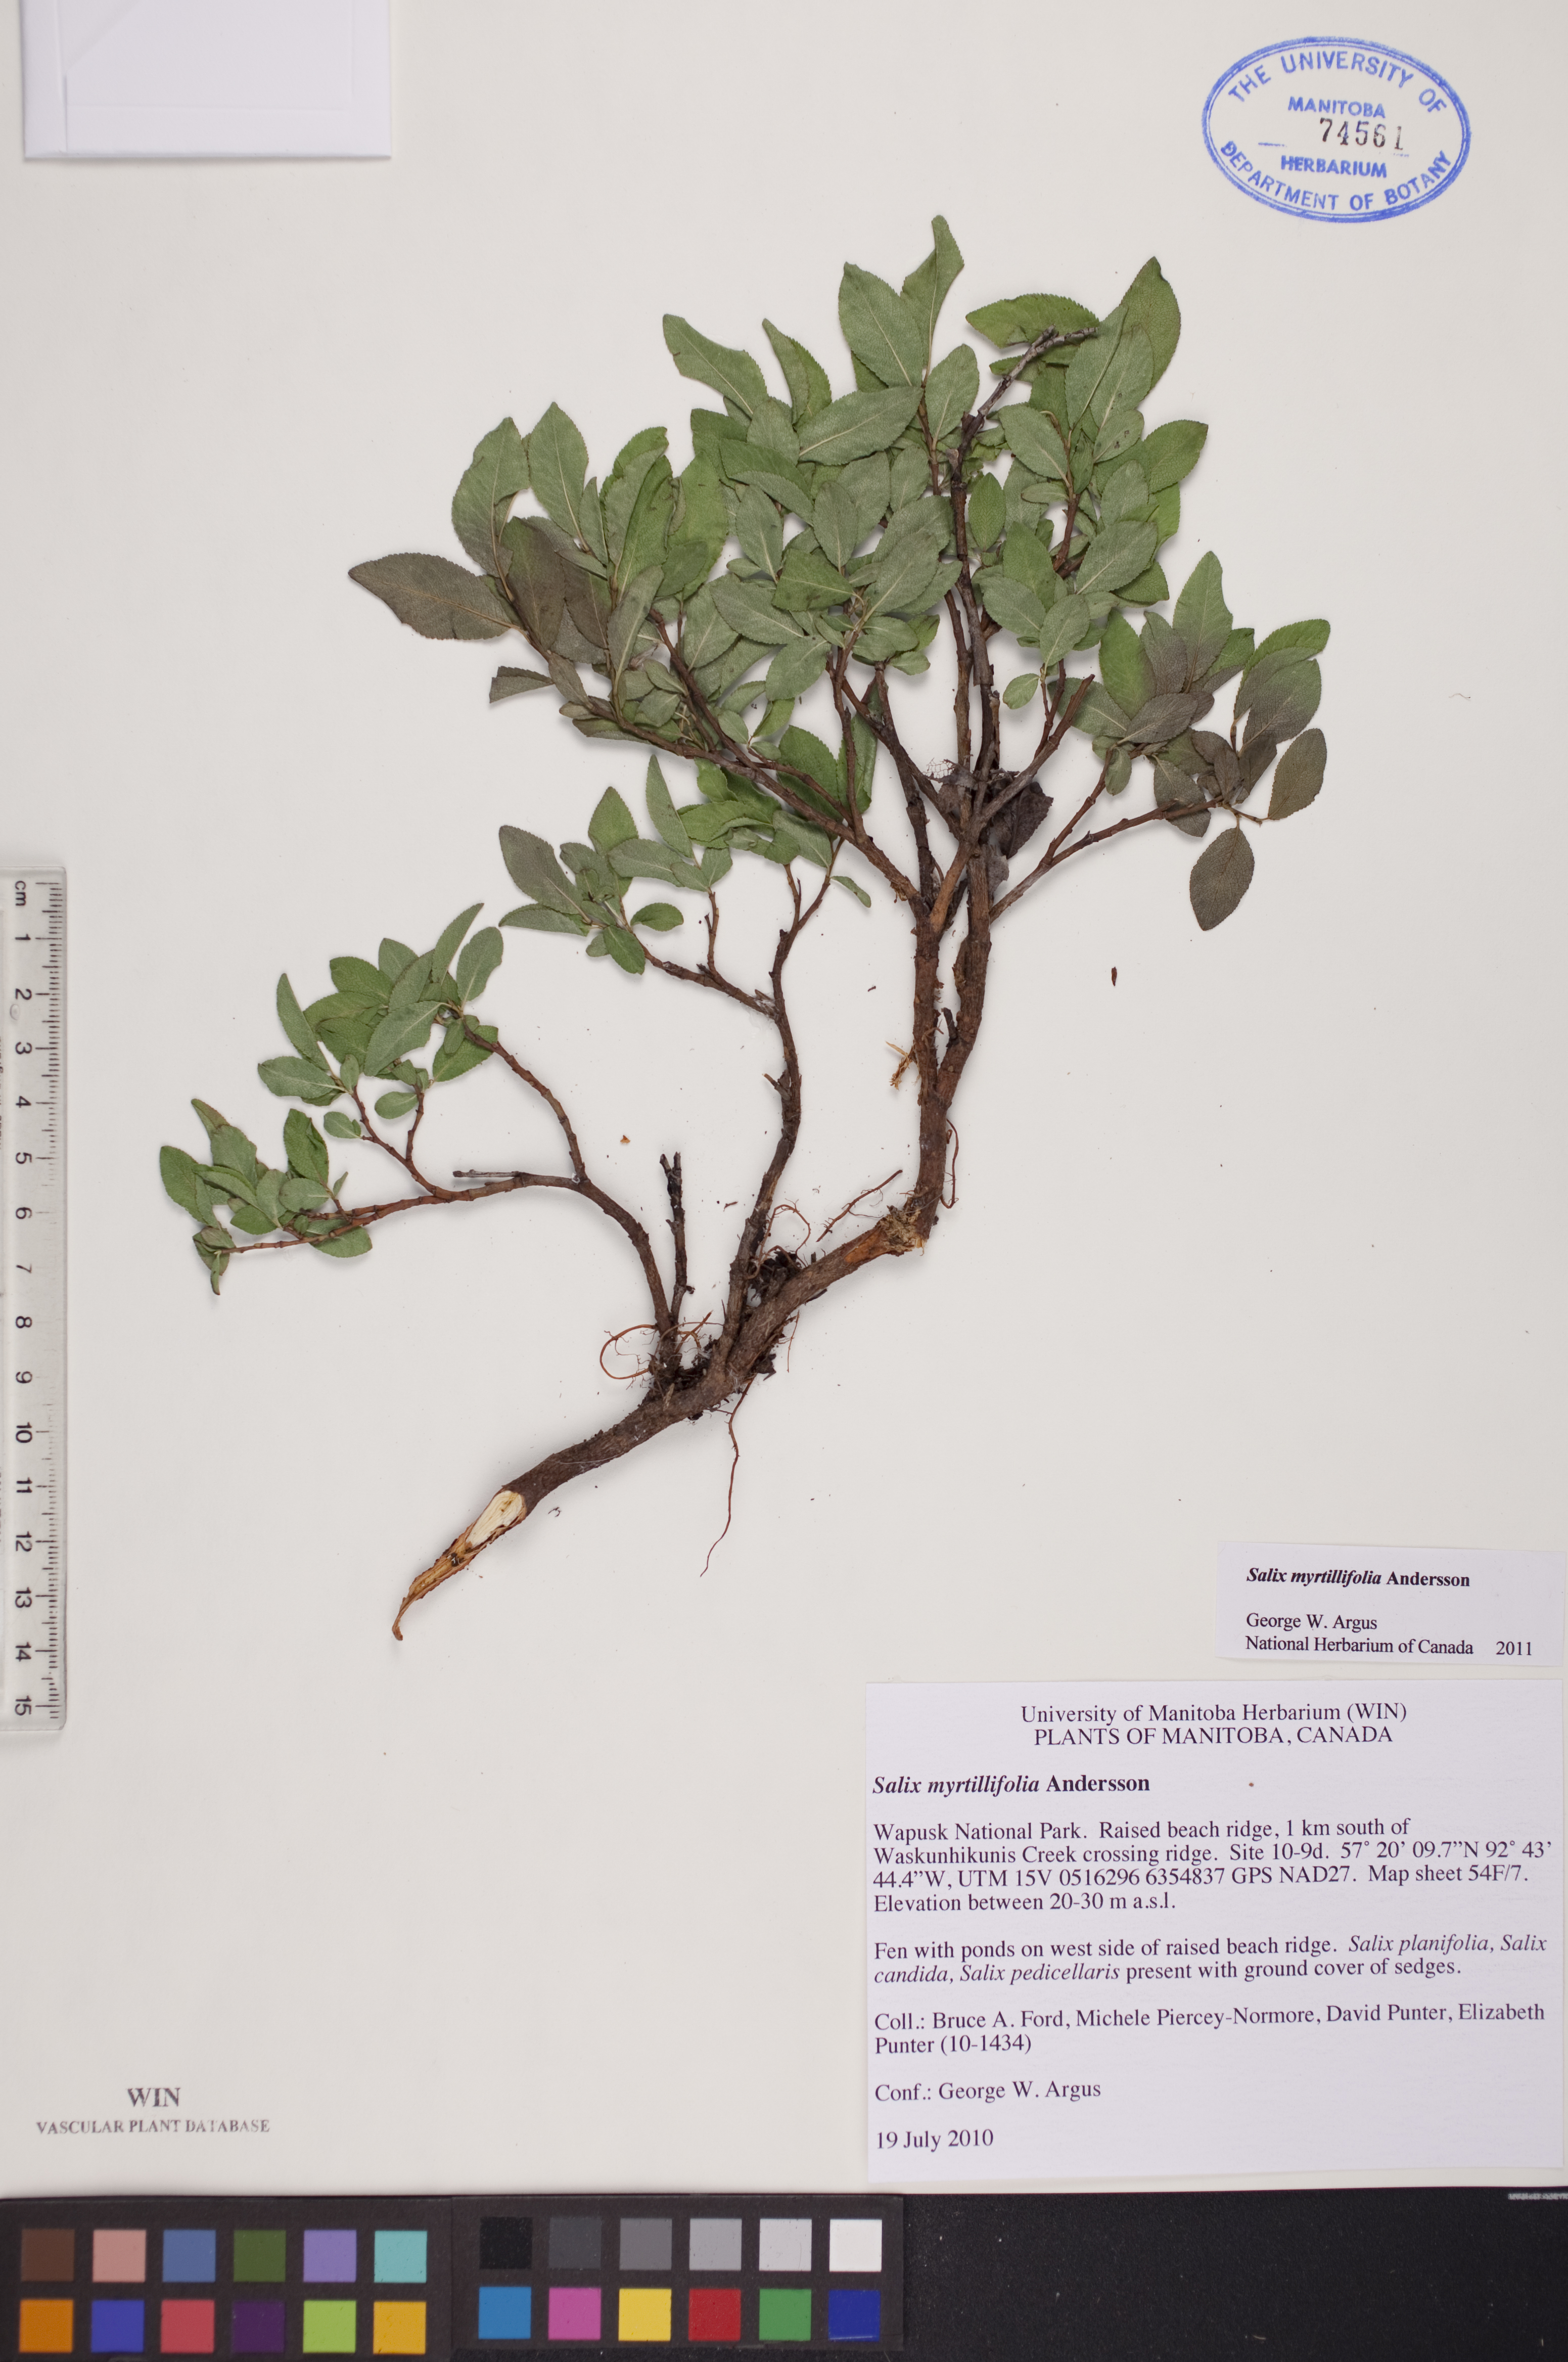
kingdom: Plantae
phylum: Tracheophyta
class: Magnoliopsida
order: Malpighiales
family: Salicaceae
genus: Salix
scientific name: Salix myrtillifolia
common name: Bilberry willow
